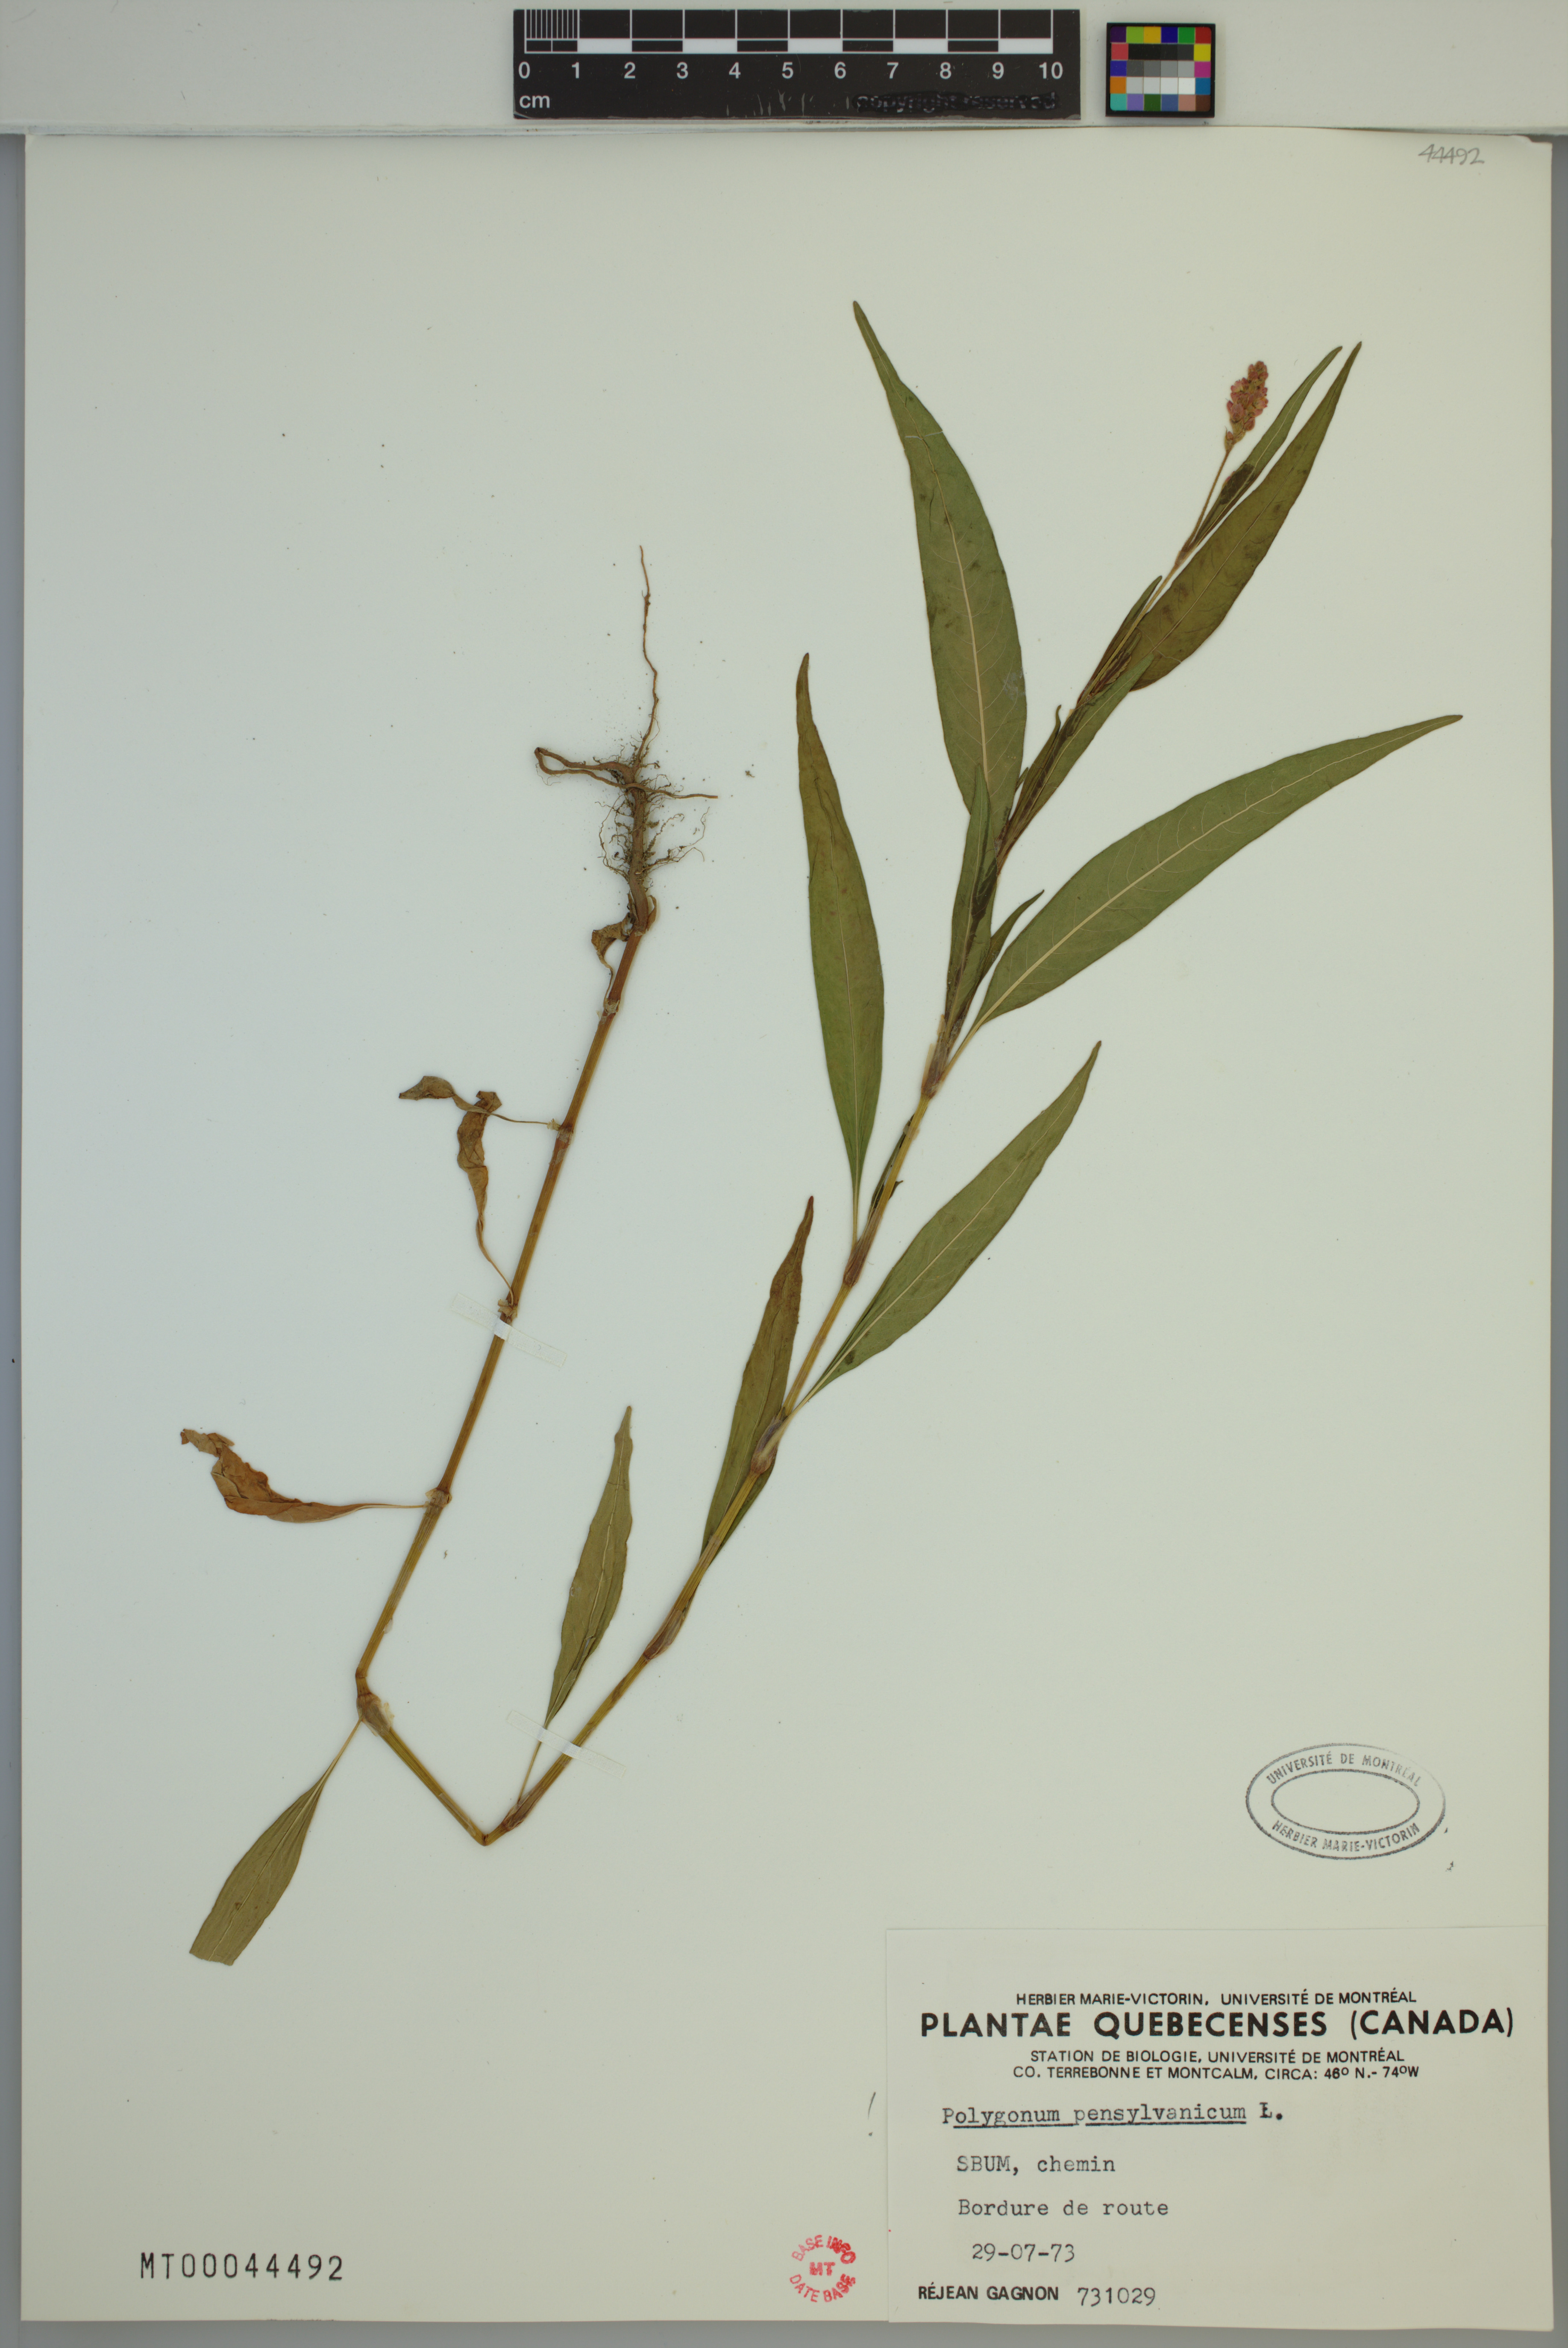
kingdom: Plantae
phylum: Tracheophyta
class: Magnoliopsida
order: Caryophyllales
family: Polygonaceae
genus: Persicaria
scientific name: Persicaria pensylvanica
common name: Pinkweed
